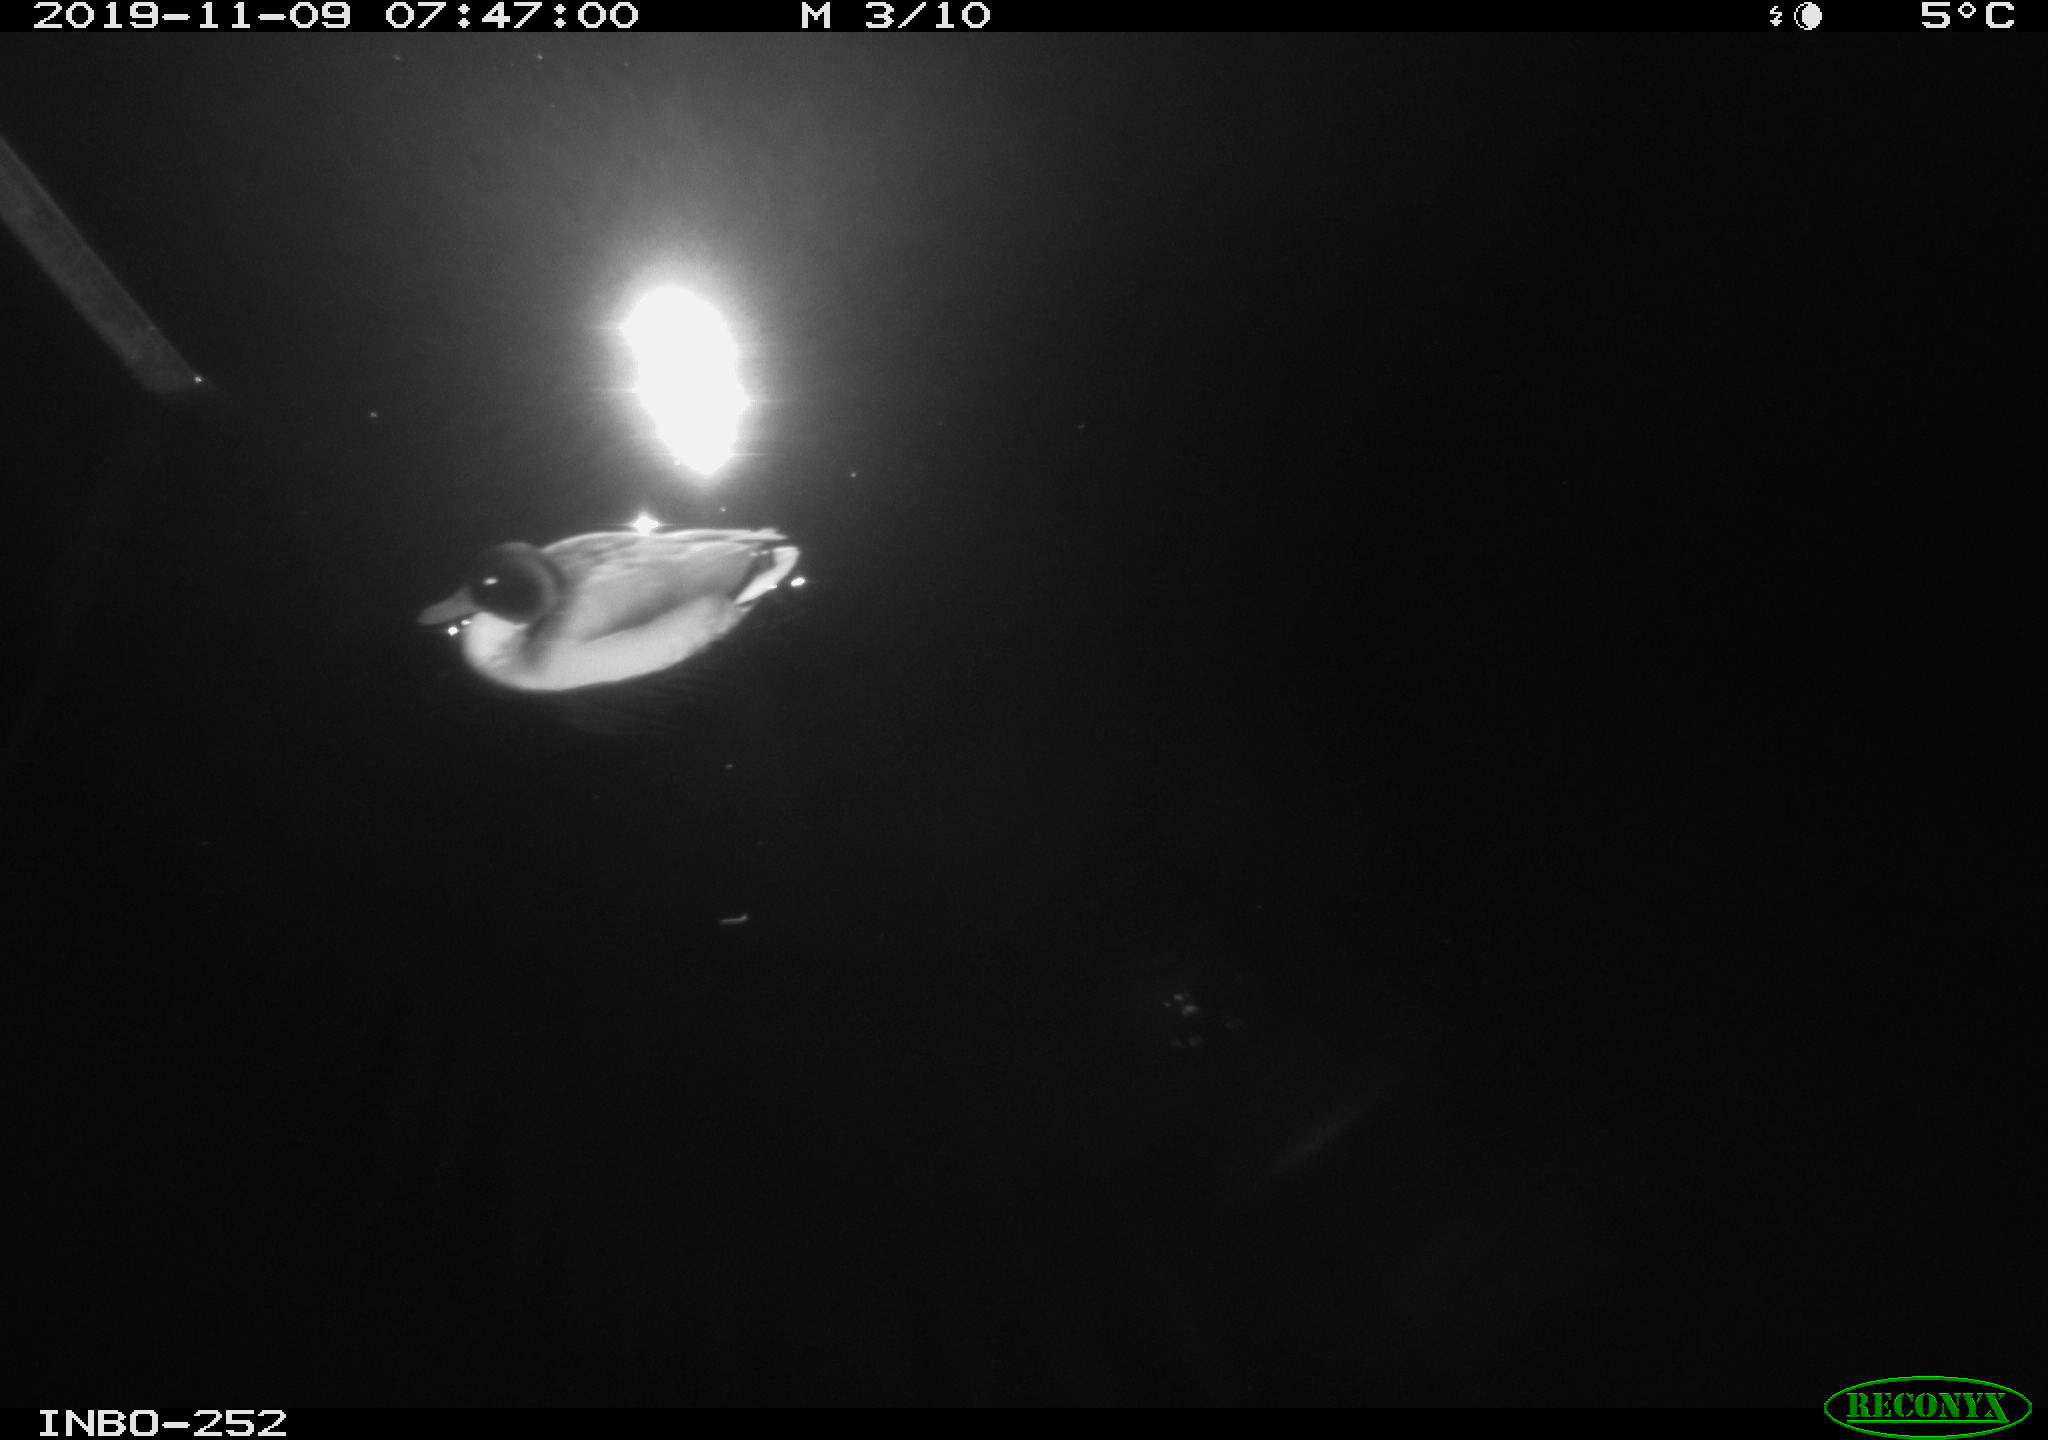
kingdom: Animalia
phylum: Chordata
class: Aves
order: Anseriformes
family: Anatidae
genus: Anas
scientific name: Anas platyrhynchos
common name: Mallard
